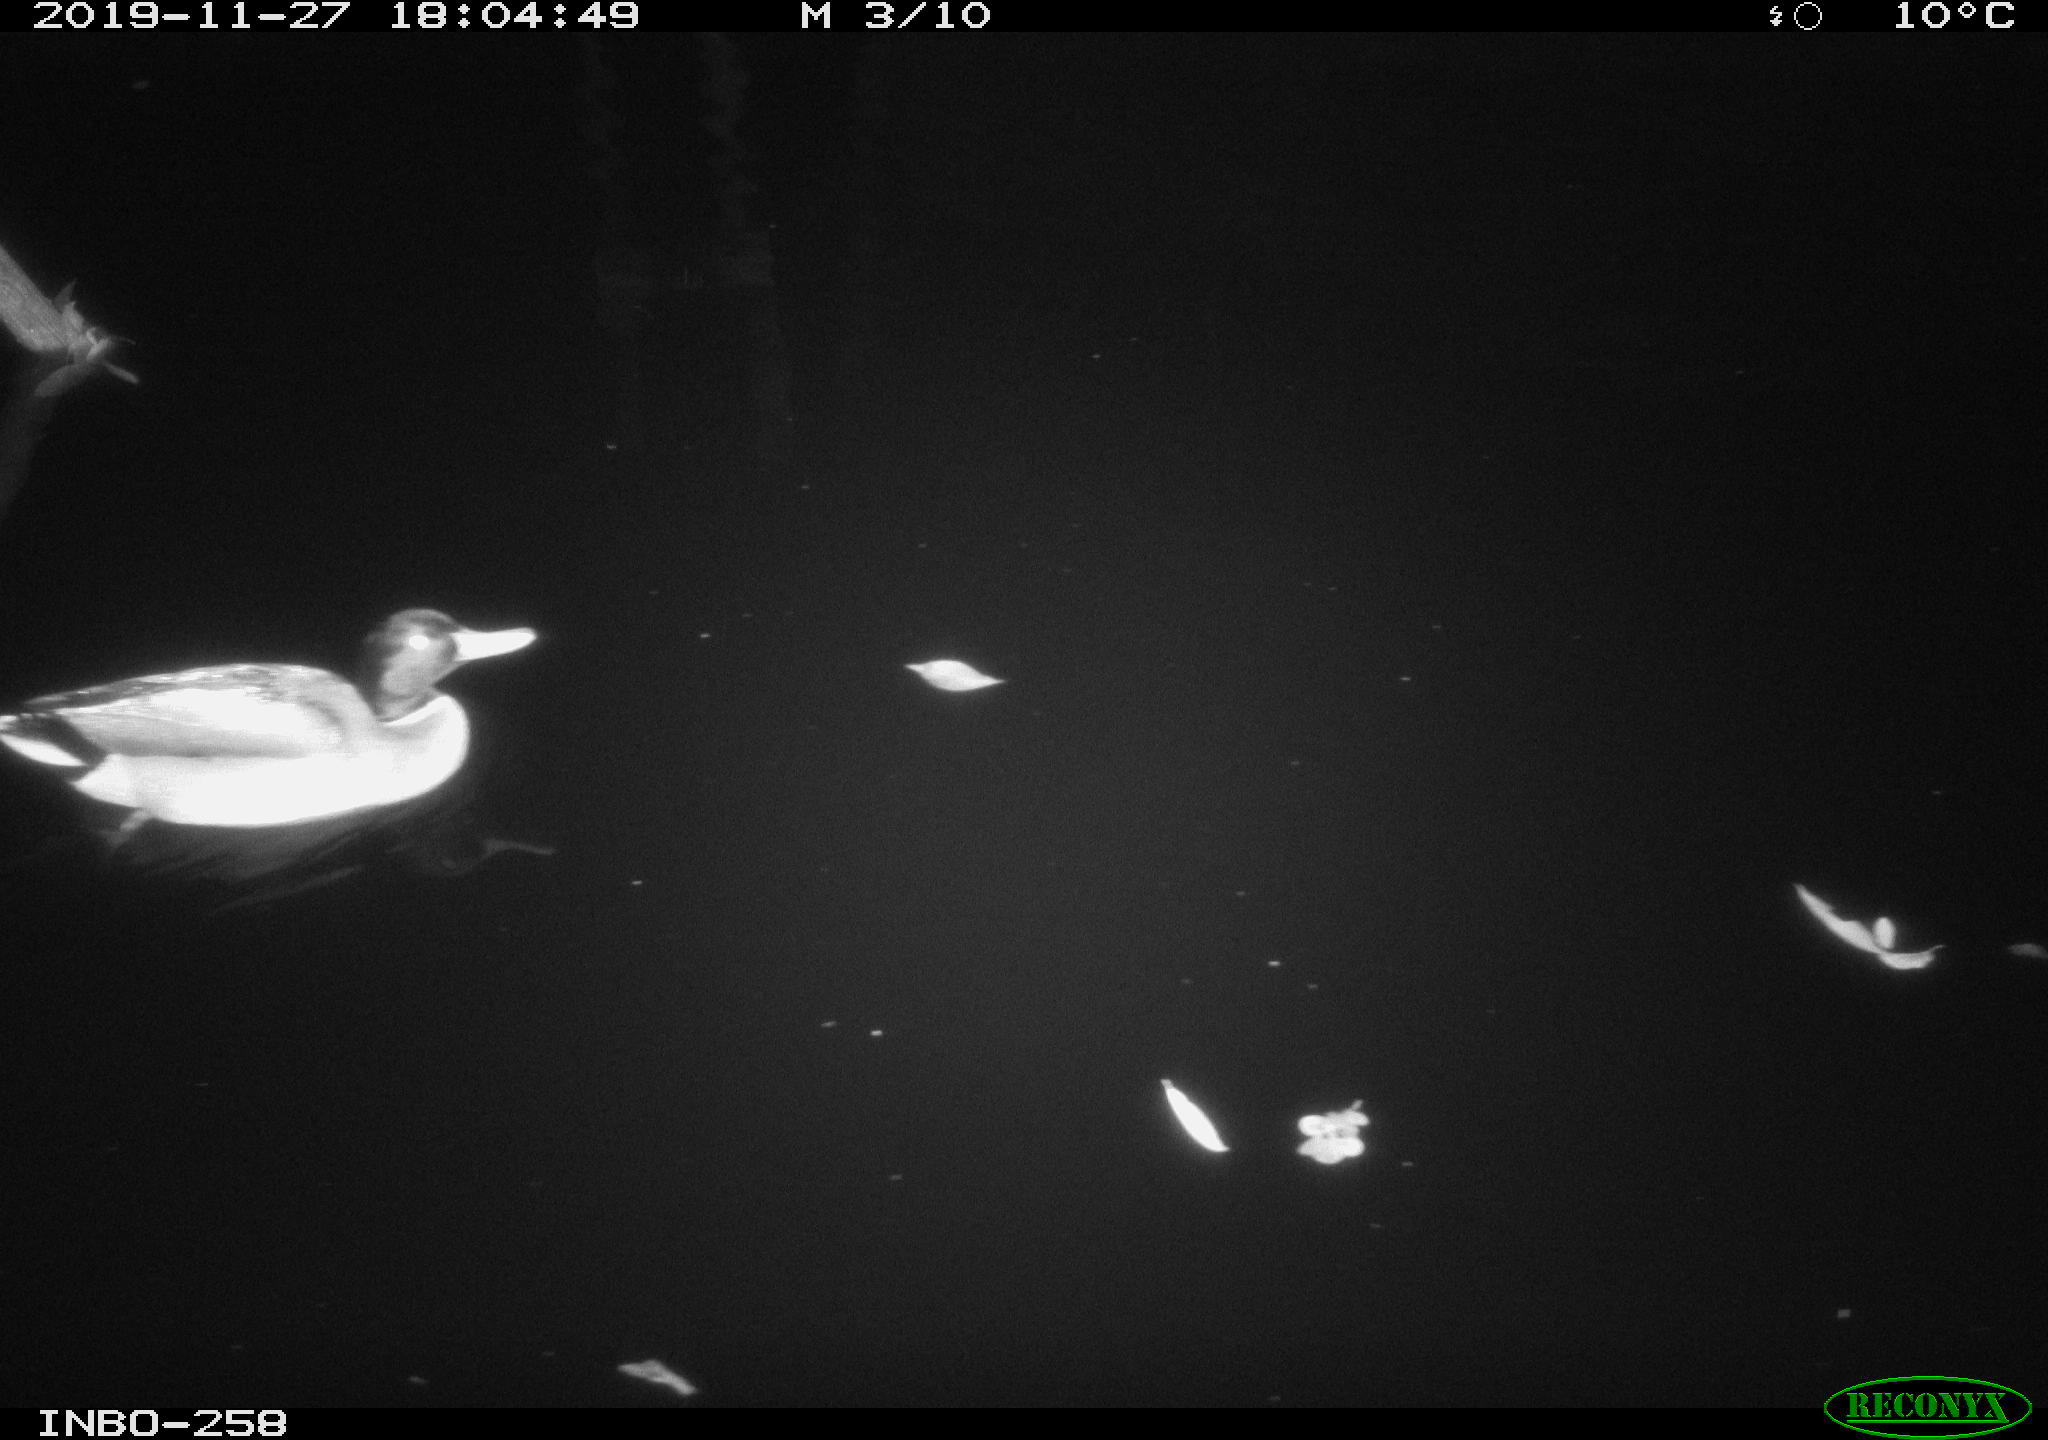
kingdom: Animalia
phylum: Chordata
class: Aves
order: Anseriformes
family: Anatidae
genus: Anas
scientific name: Anas platyrhynchos
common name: Mallard
